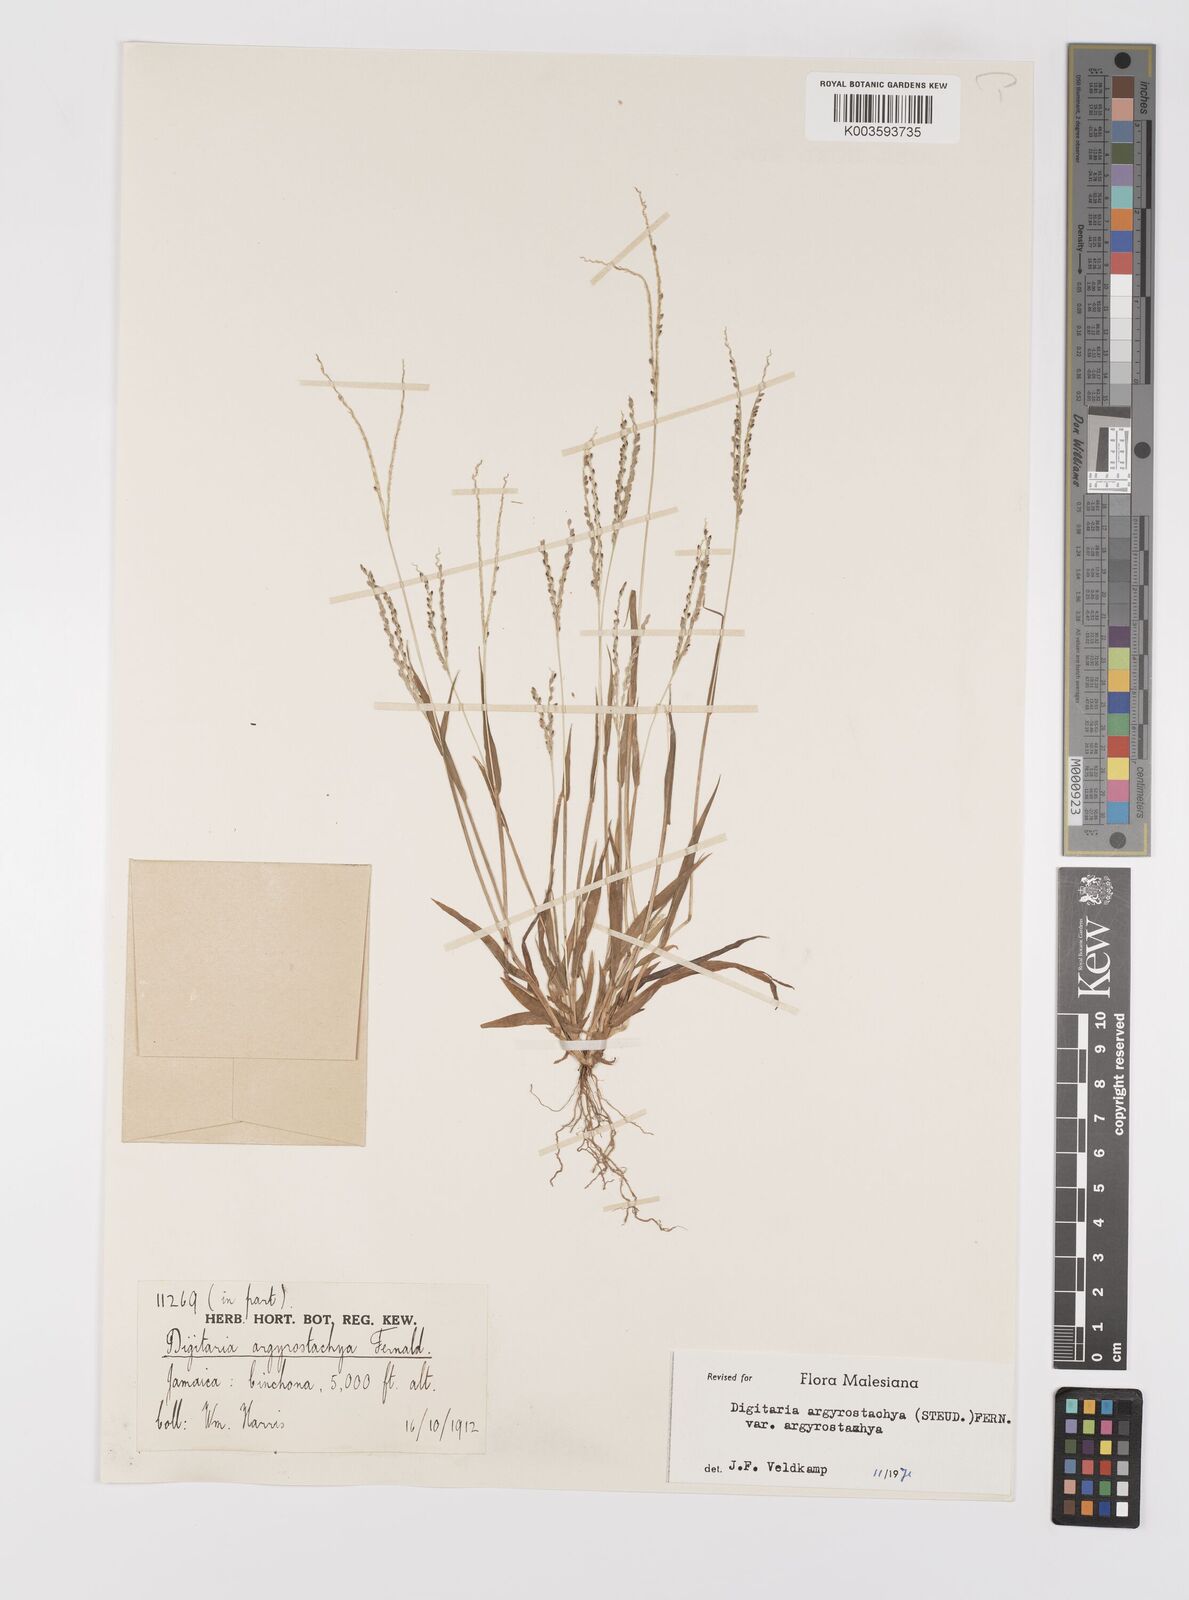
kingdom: Plantae
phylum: Tracheophyta
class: Liliopsida
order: Poales
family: Poaceae
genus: Digitaria
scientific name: Digitaria ternata
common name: Blackseed crabgrass
